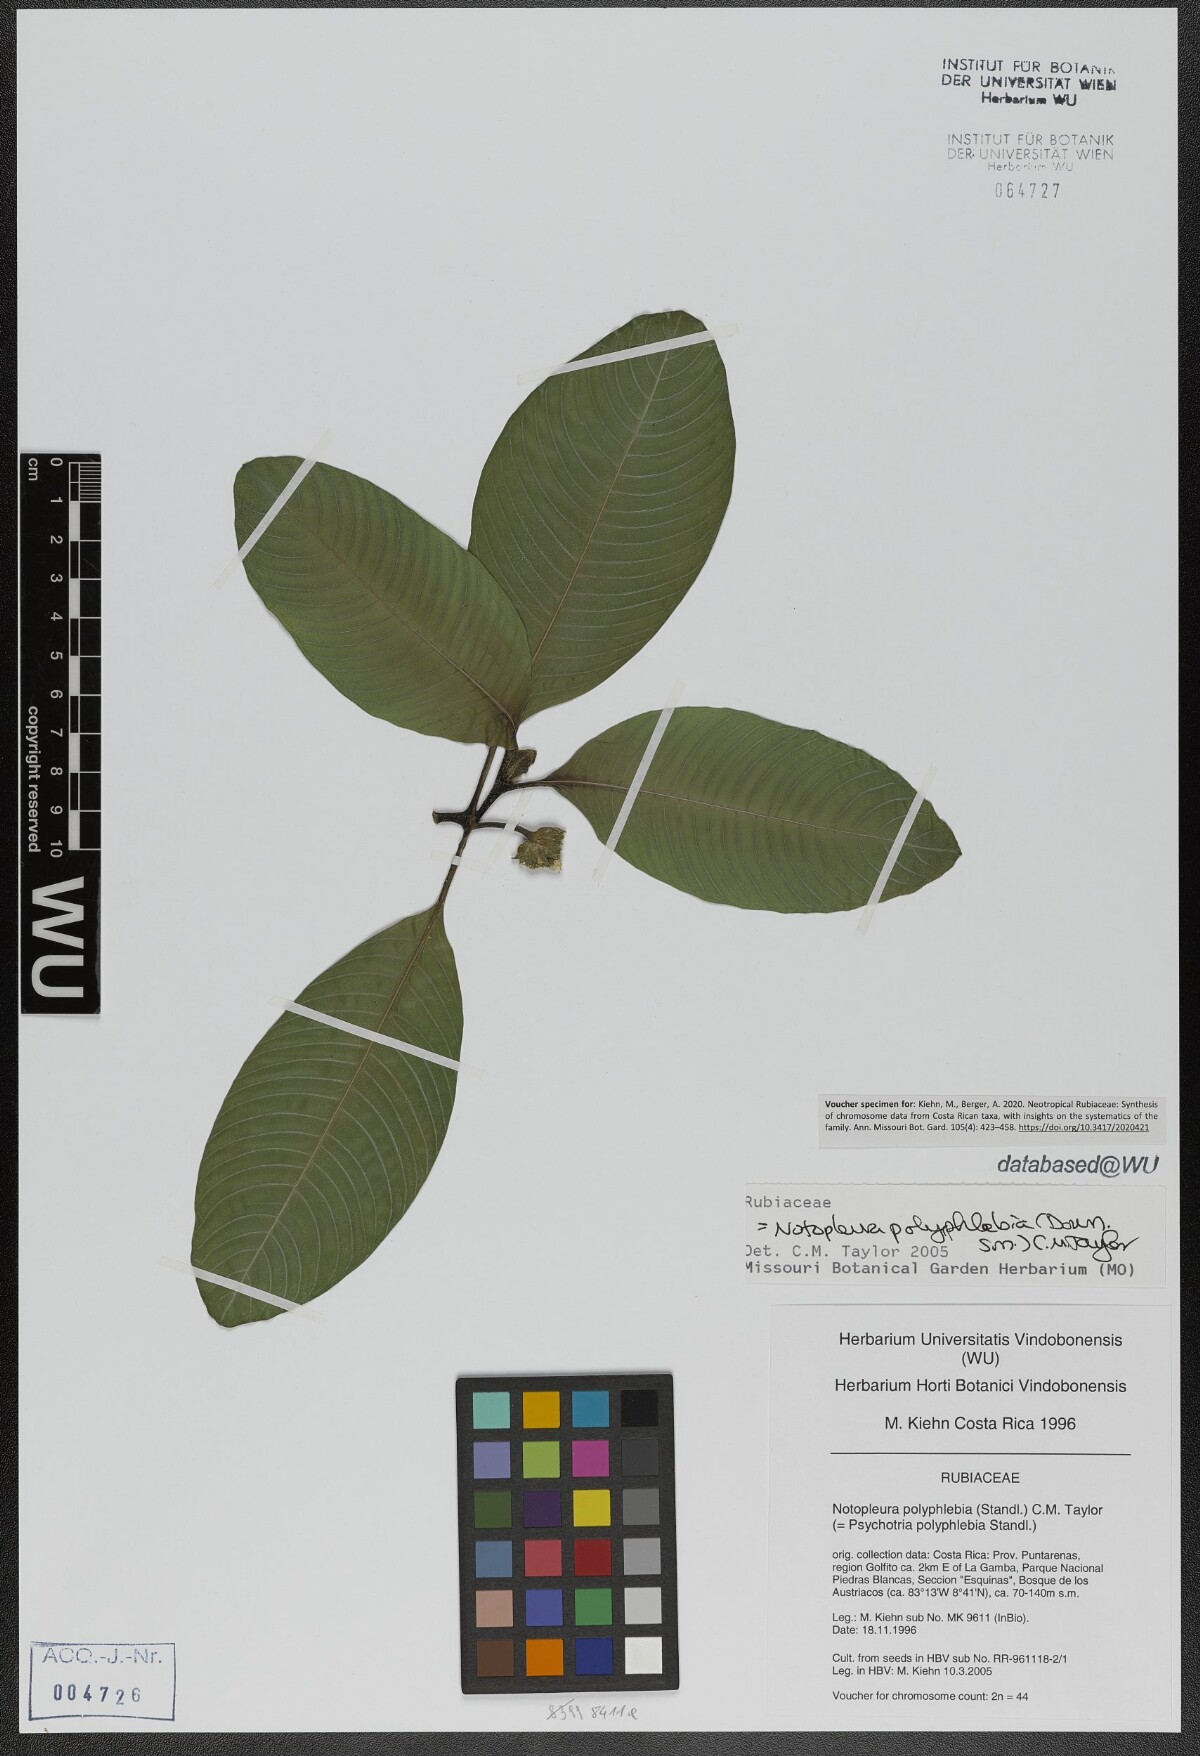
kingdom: Plantae
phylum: Tracheophyta
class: Magnoliopsida
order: Gentianales
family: Rubiaceae
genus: Notopleura
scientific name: Notopleura polyphlebia
